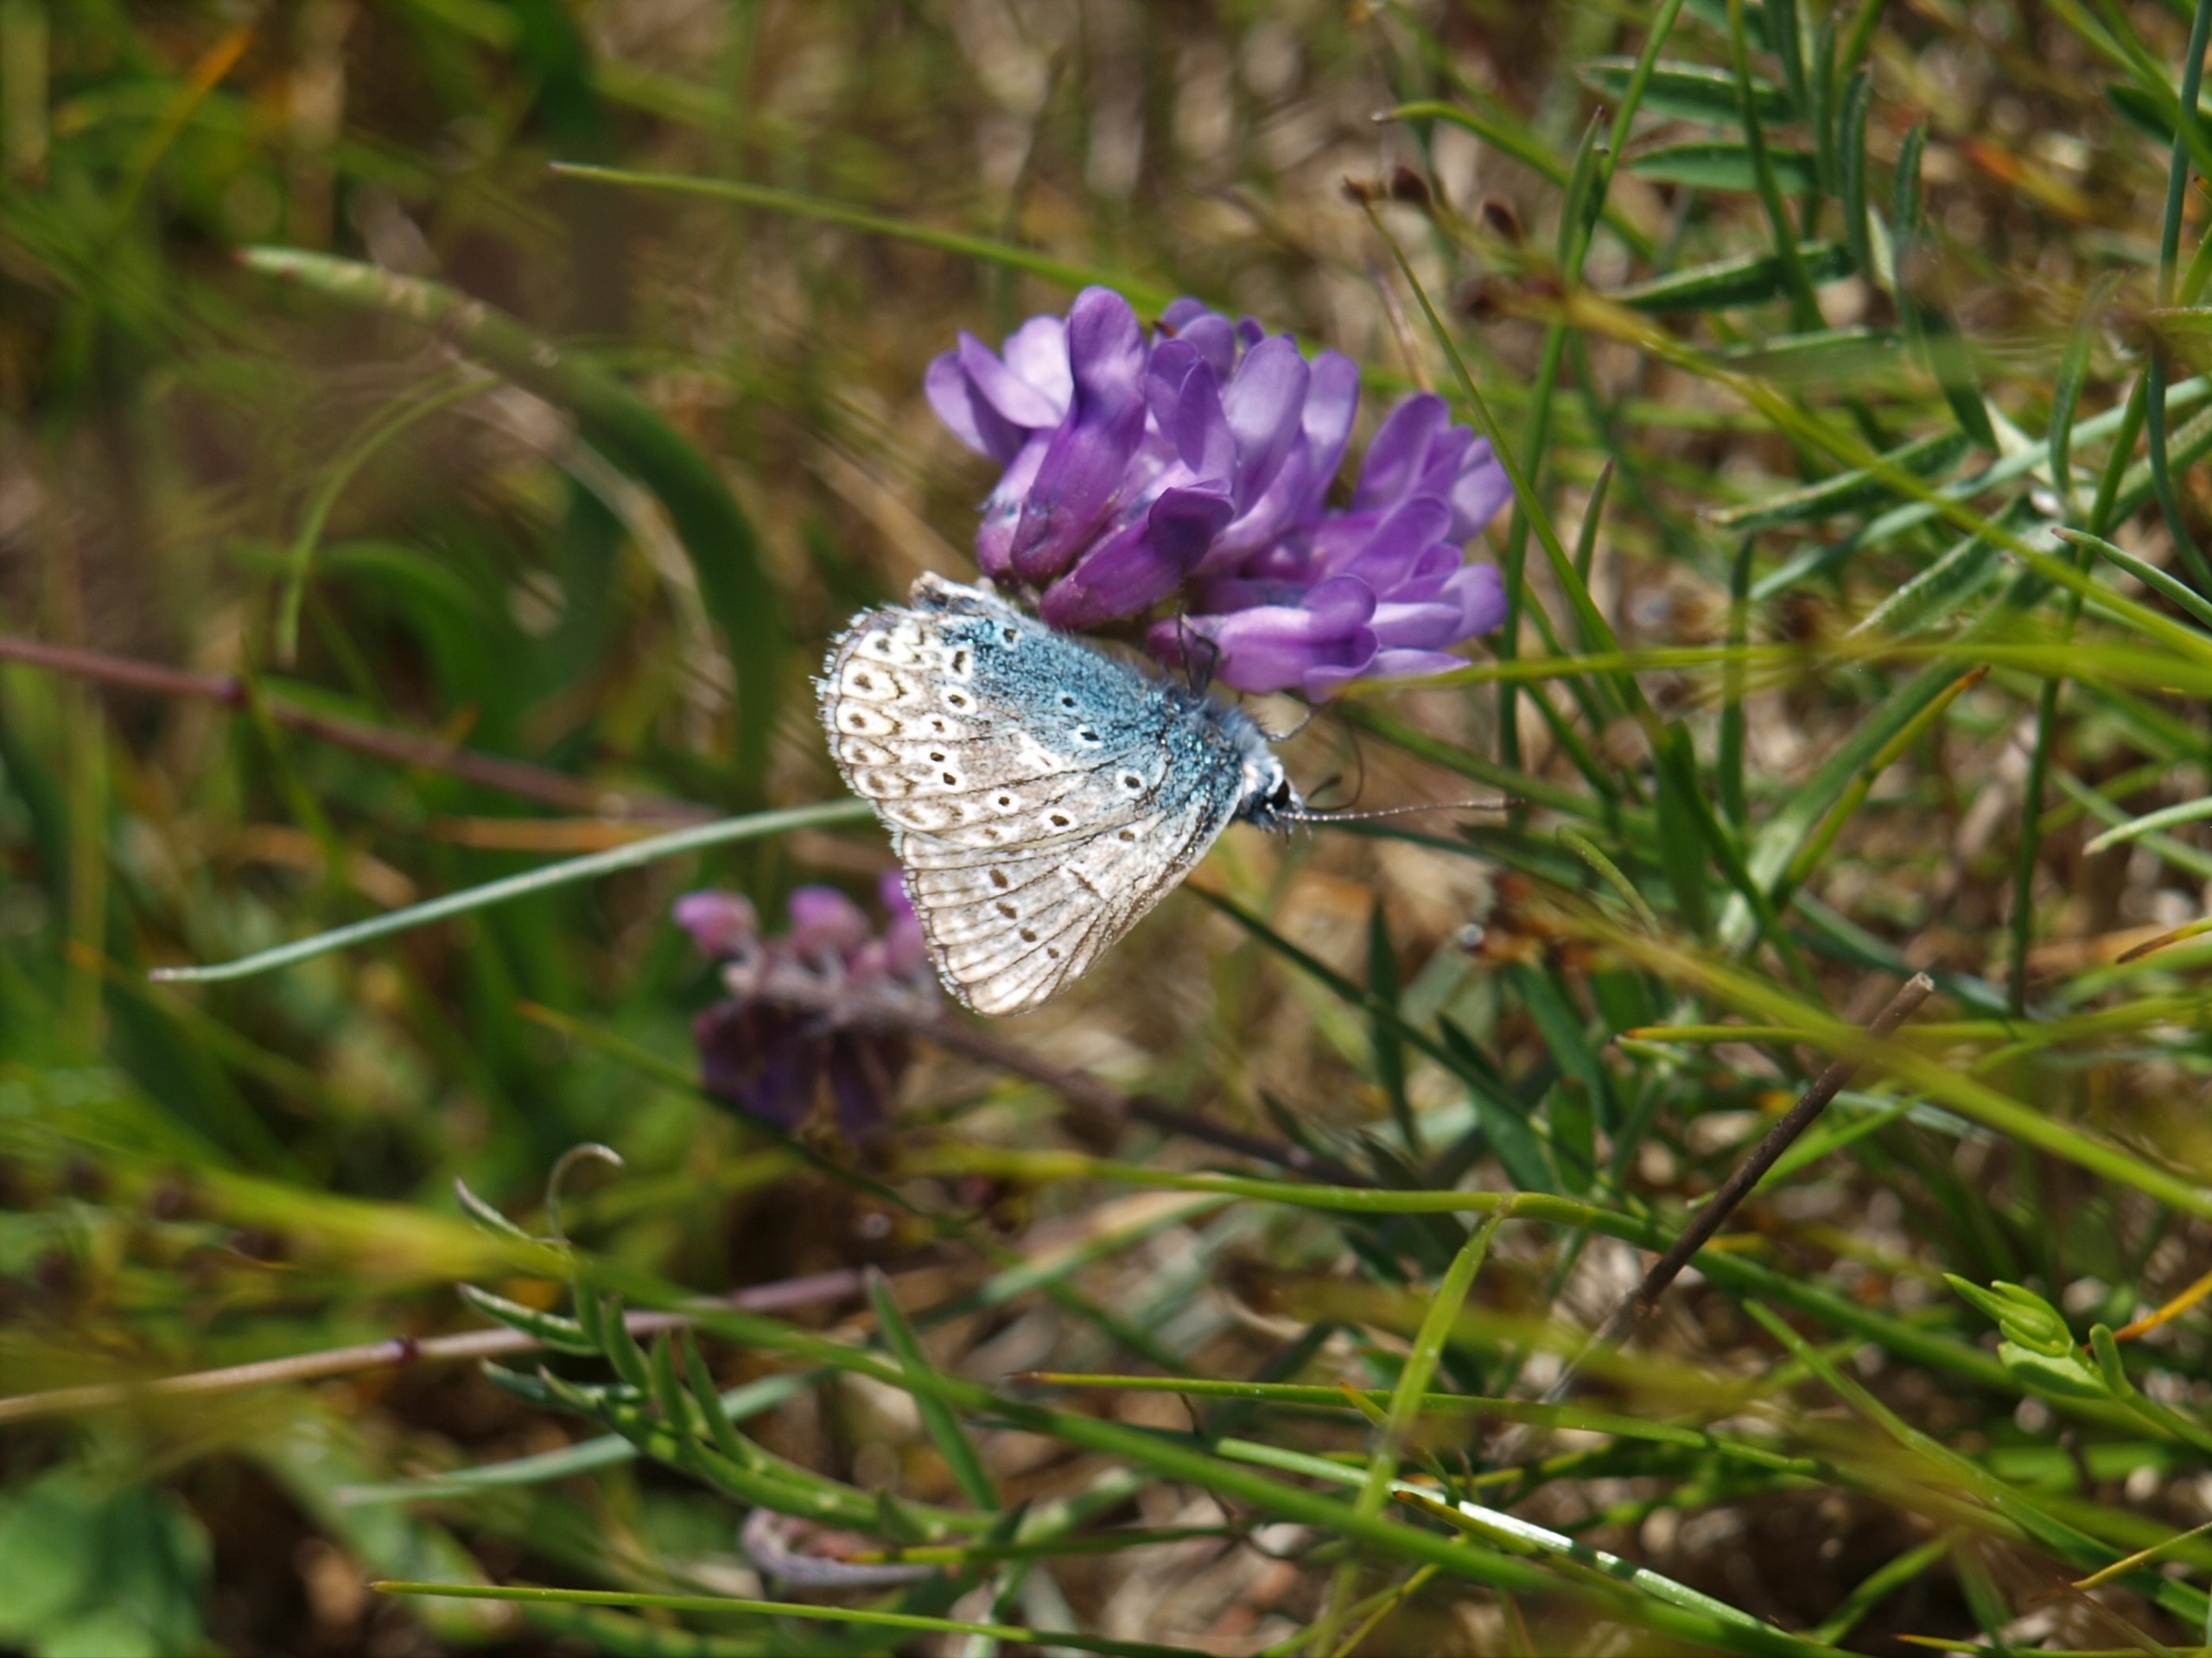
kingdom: Animalia
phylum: Arthropoda
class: Insecta
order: Lepidoptera
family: Lycaenidae
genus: Polyommatus
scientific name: Polyommatus icarus
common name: Almindelig blåfugl
